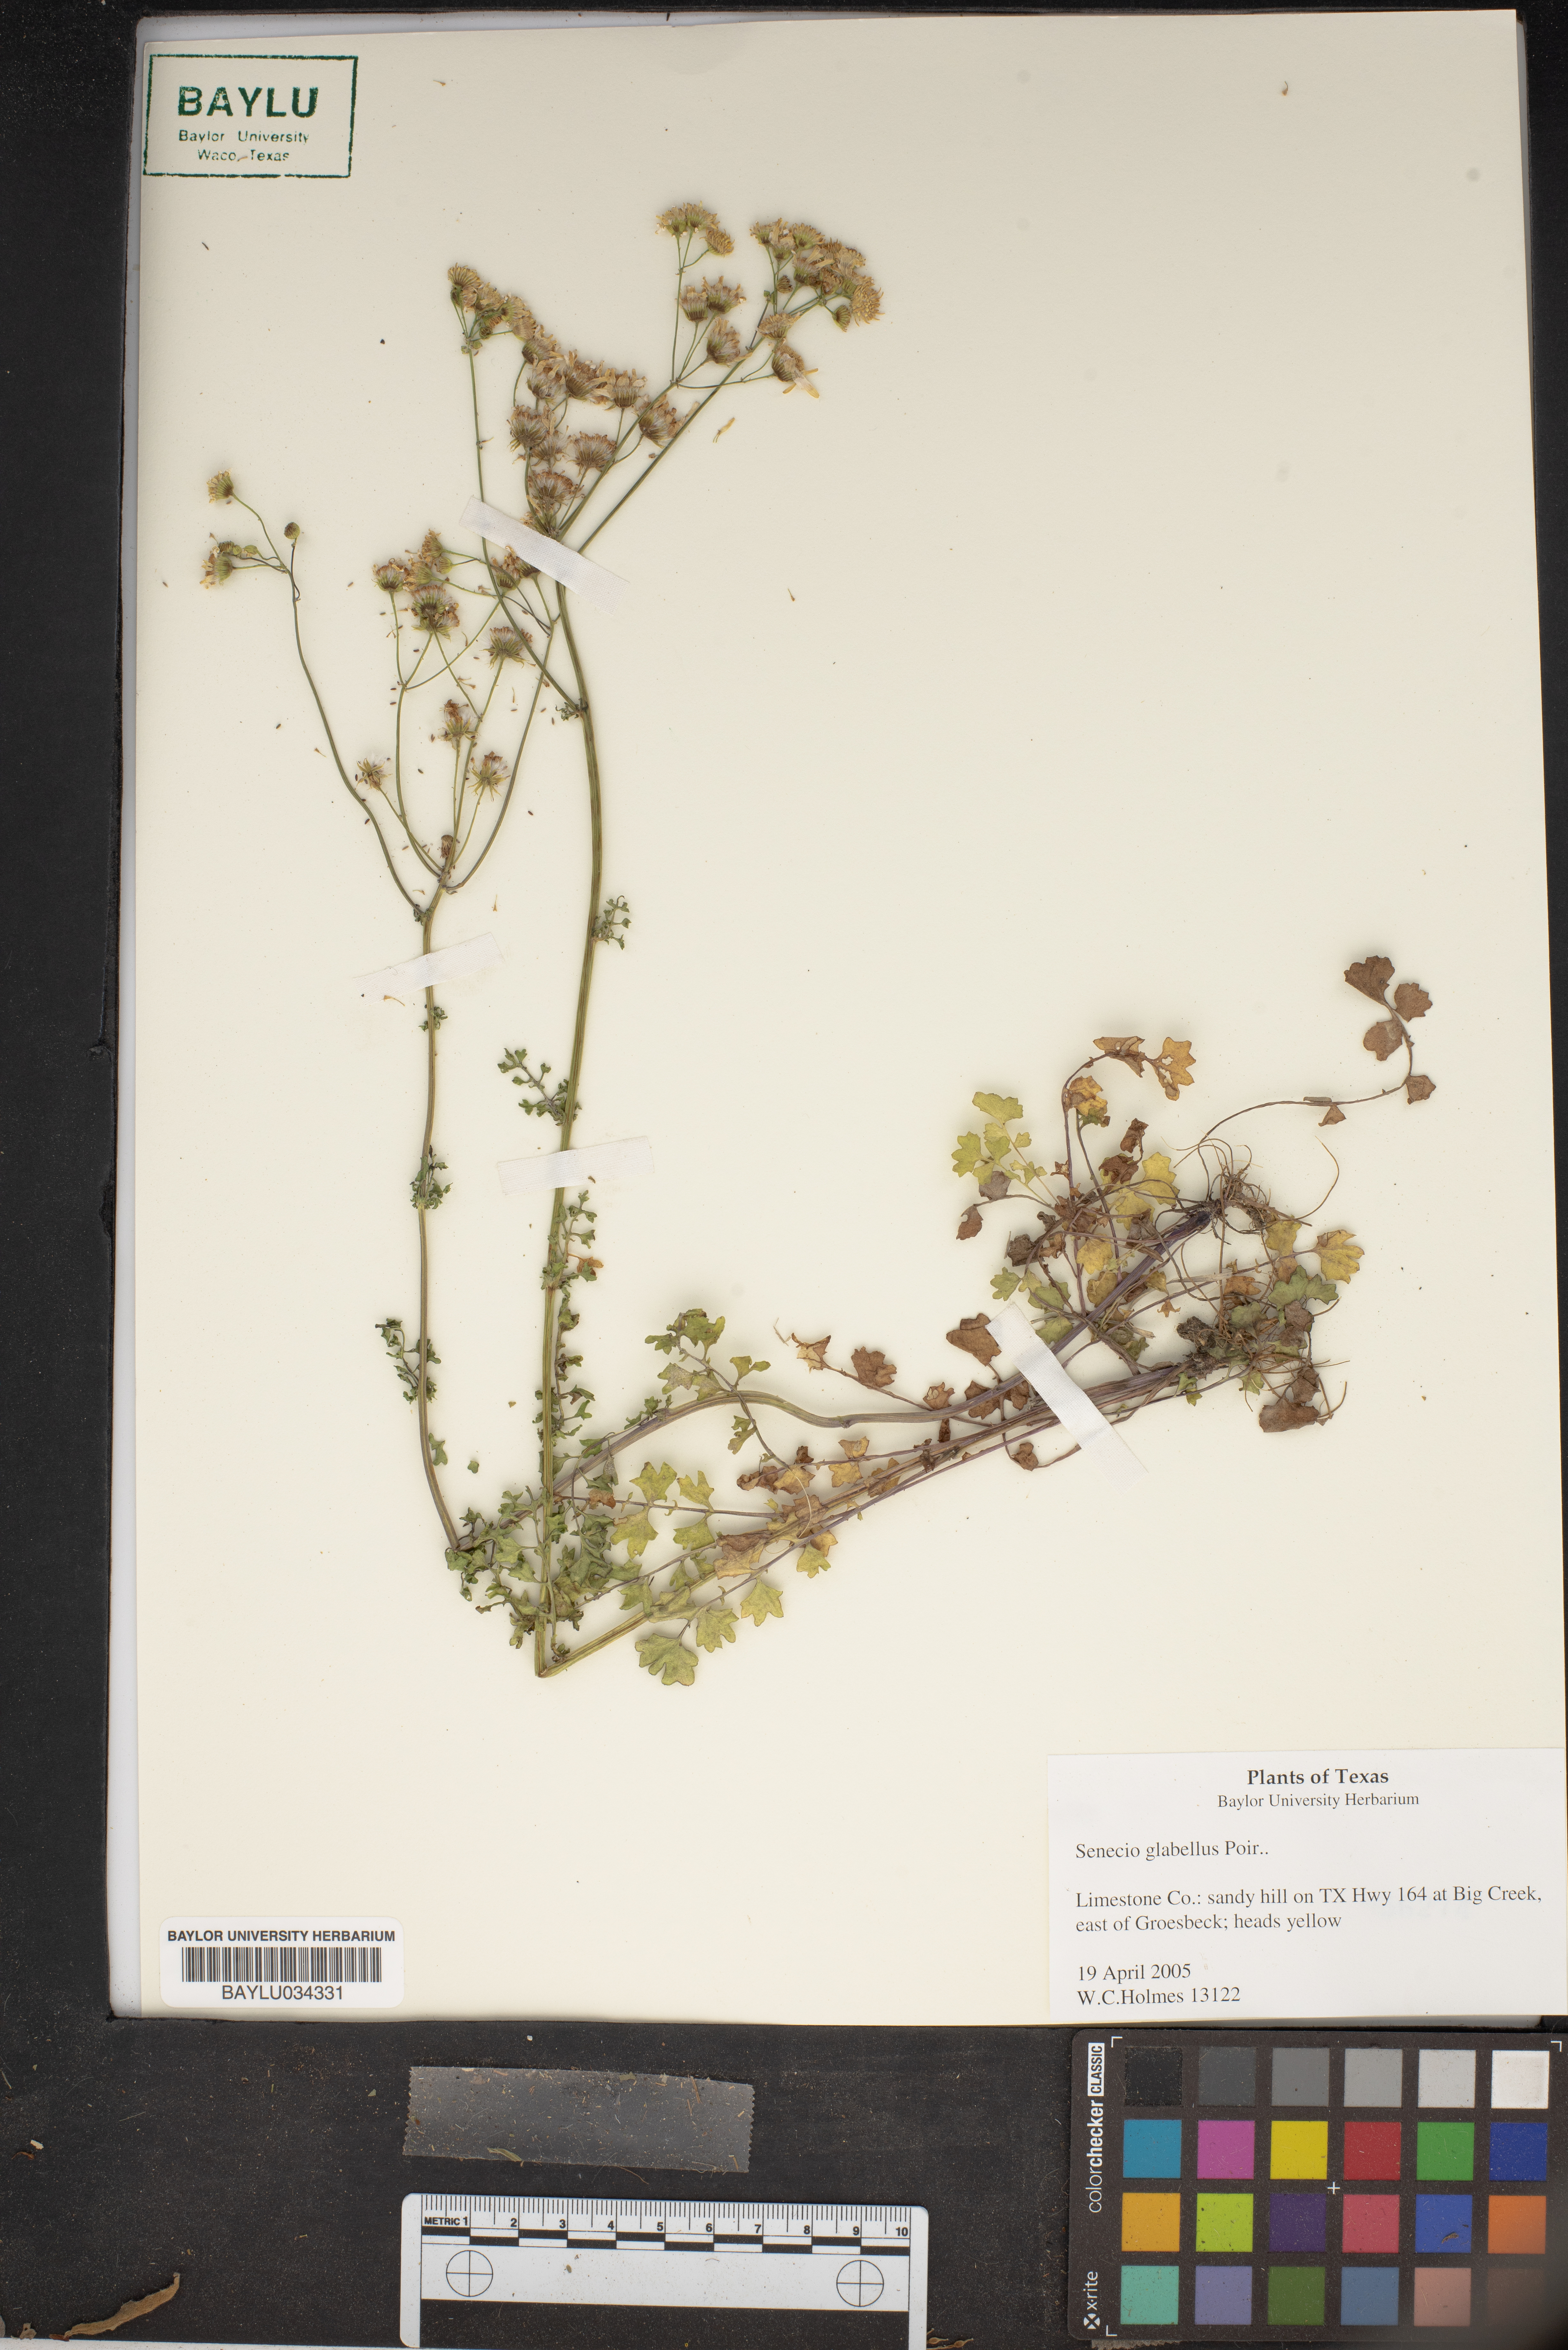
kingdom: Plantae
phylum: Tracheophyta
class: Magnoliopsida
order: Asterales
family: Asteraceae
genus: Tephroseris
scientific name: Tephroseris praticola
